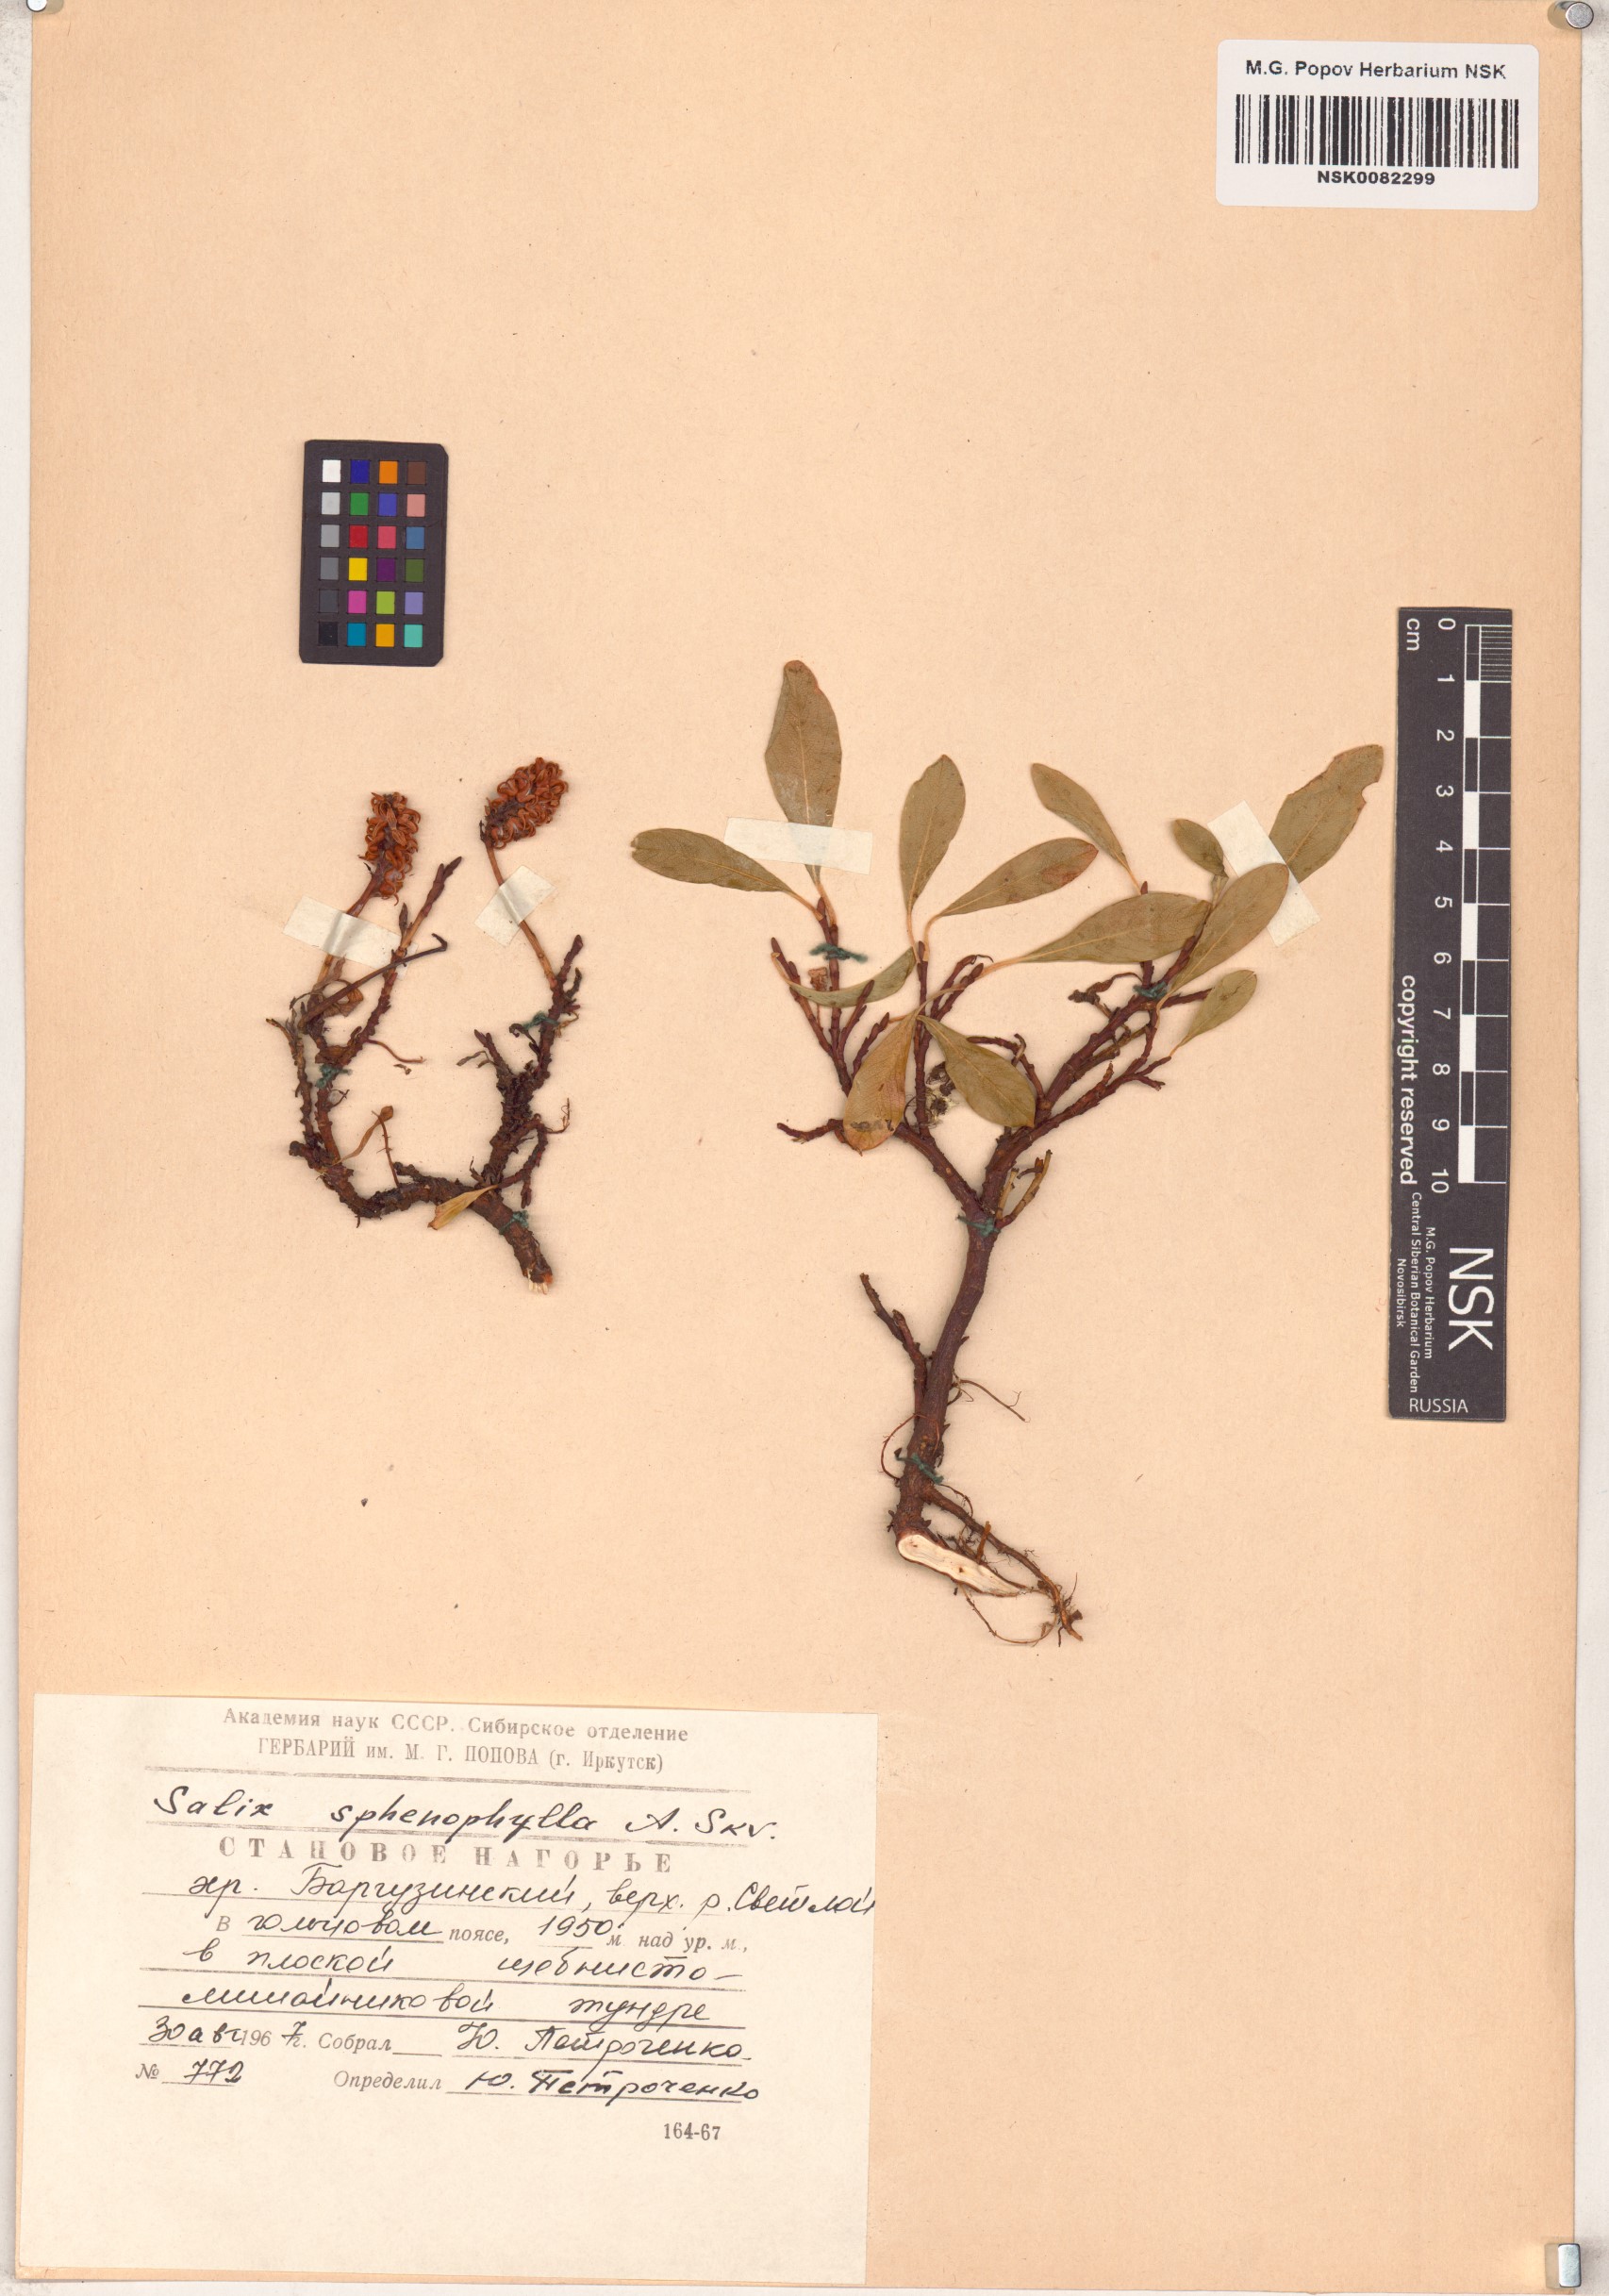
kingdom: Plantae
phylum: Tracheophyta
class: Magnoliopsida
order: Malpighiales
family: Salicaceae
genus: Salix
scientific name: Salix sphenophylla
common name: Wedge-leaved willow
